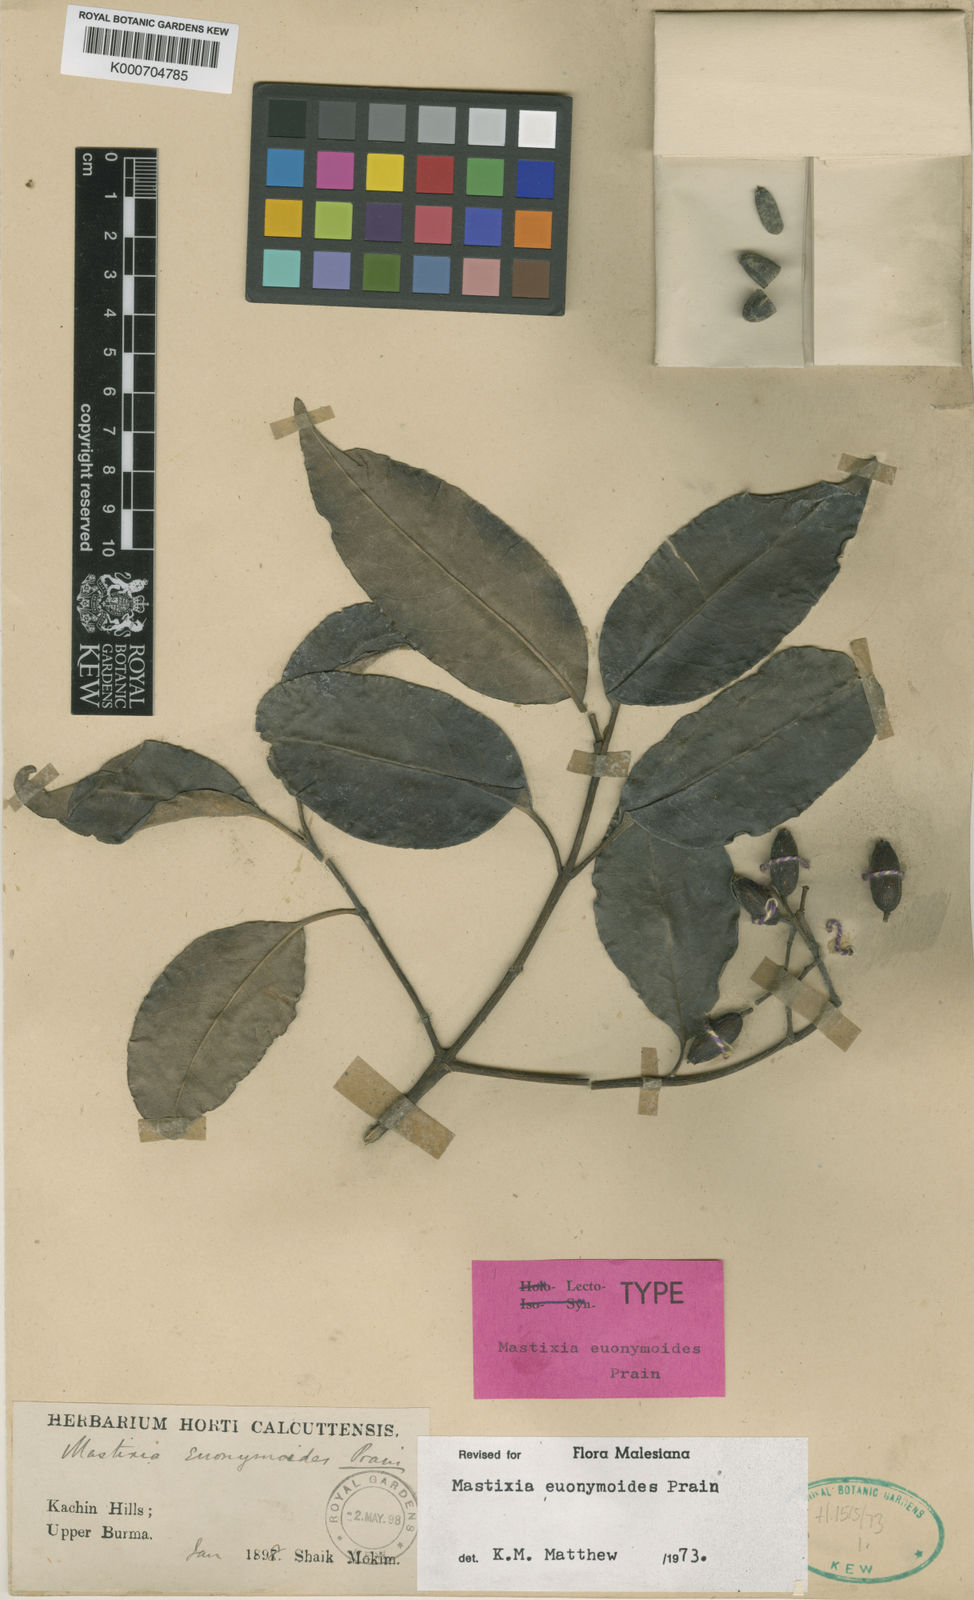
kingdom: Plantae
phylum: Tracheophyta
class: Magnoliopsida
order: Cornales
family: Nyssaceae
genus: Mastixia
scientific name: Mastixia euonymoides
